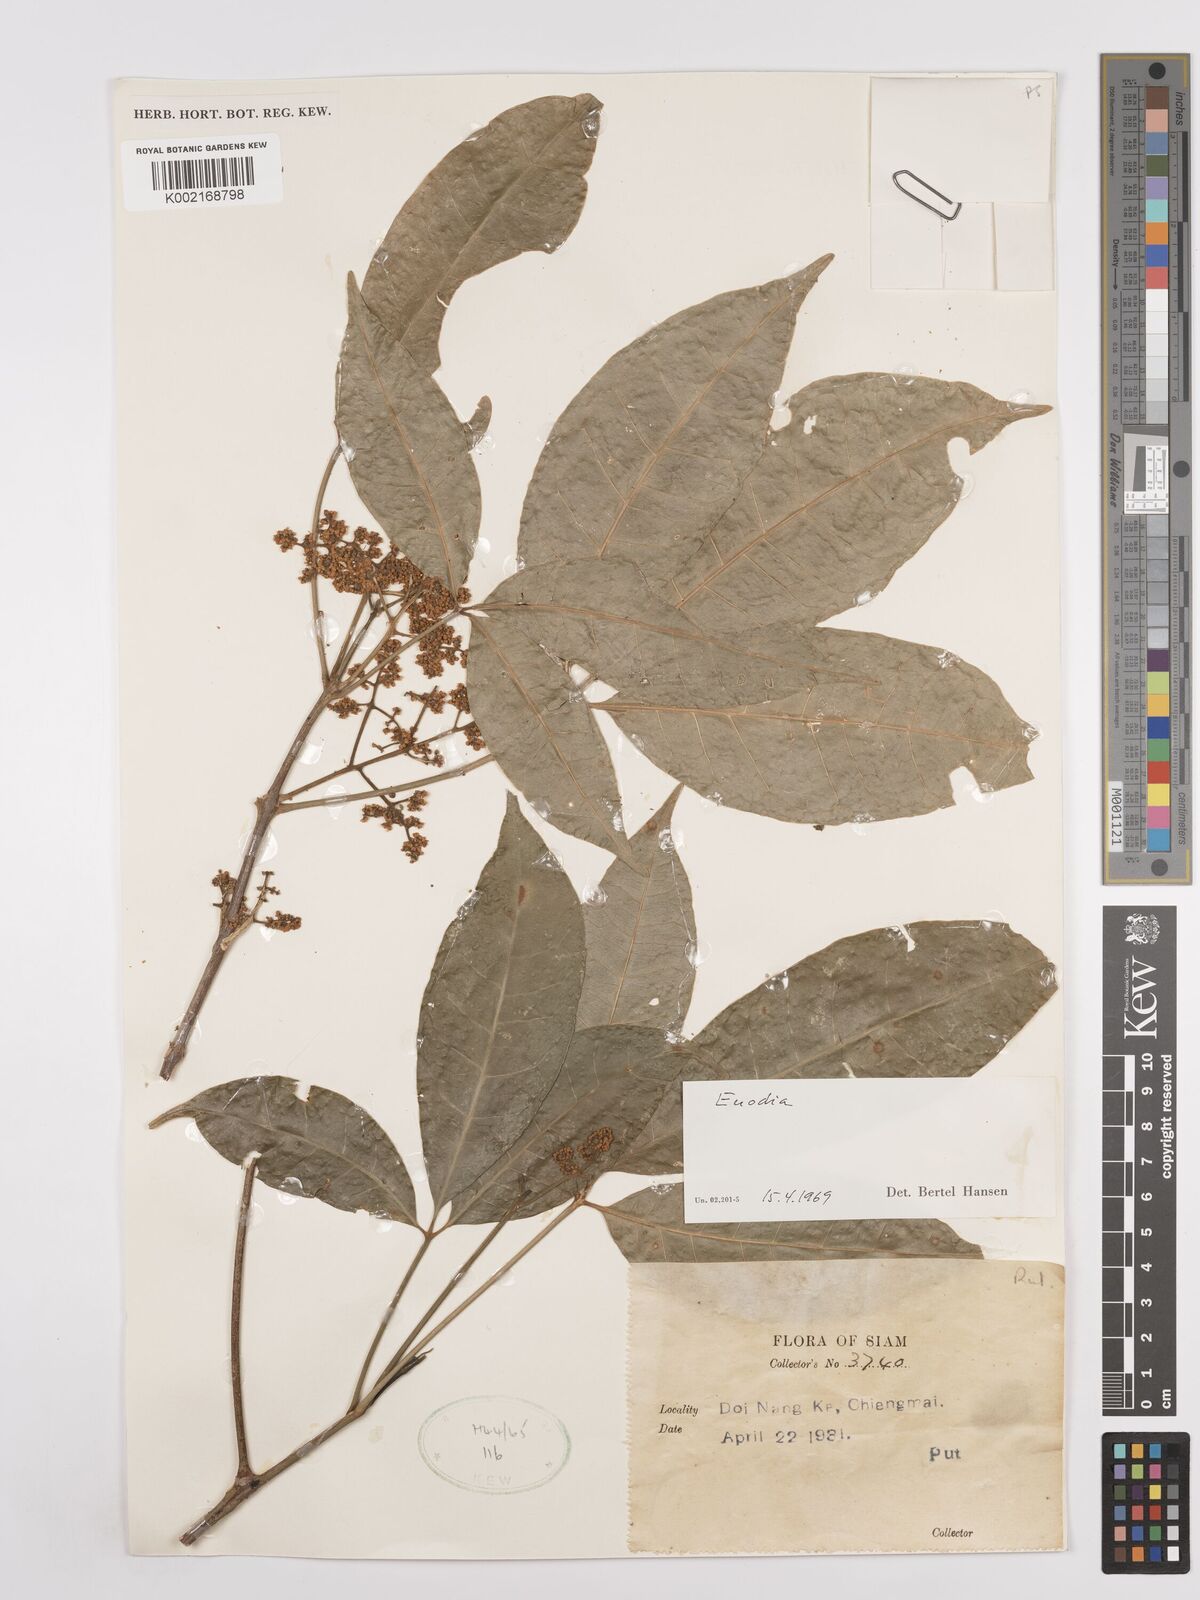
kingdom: Plantae
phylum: Tracheophyta
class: Magnoliopsida
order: Sapindales
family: Rutaceae
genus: Euodia
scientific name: Euodia
